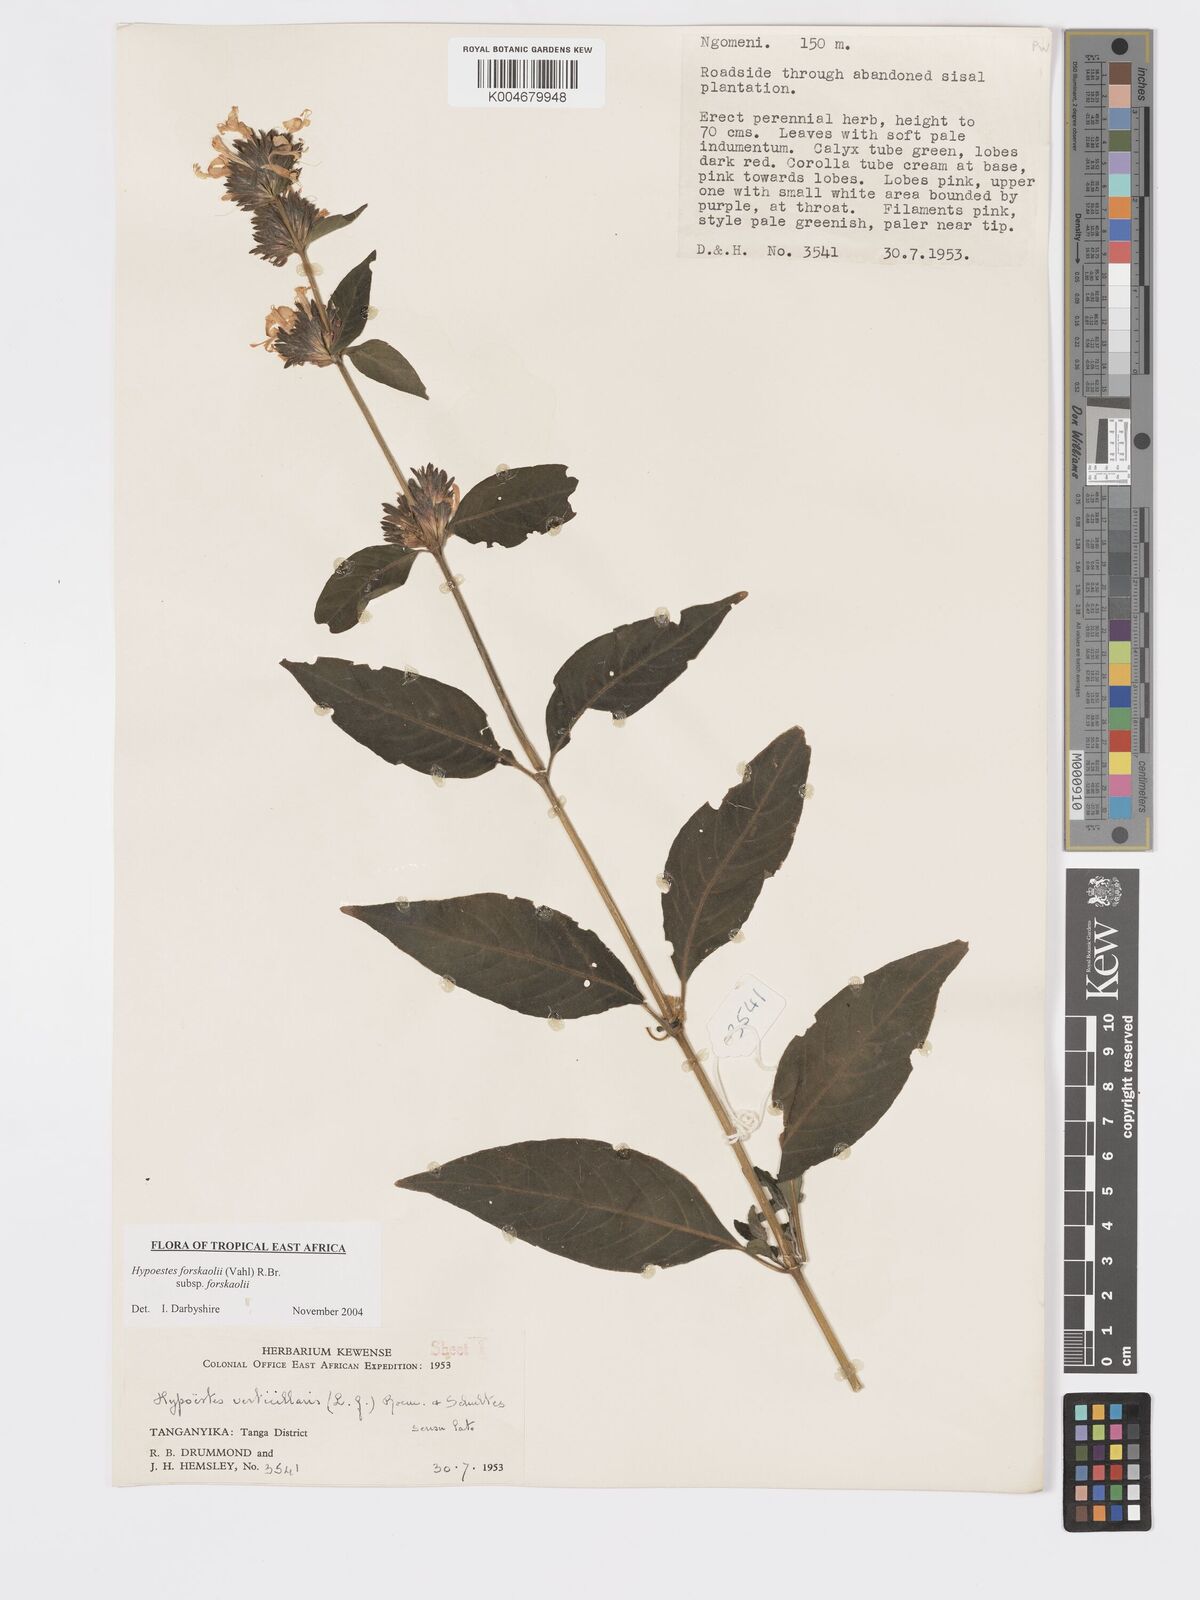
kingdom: Plantae
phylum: Tracheophyta
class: Magnoliopsida
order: Lamiales
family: Acanthaceae
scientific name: Acanthaceae
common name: Acanthaceae
